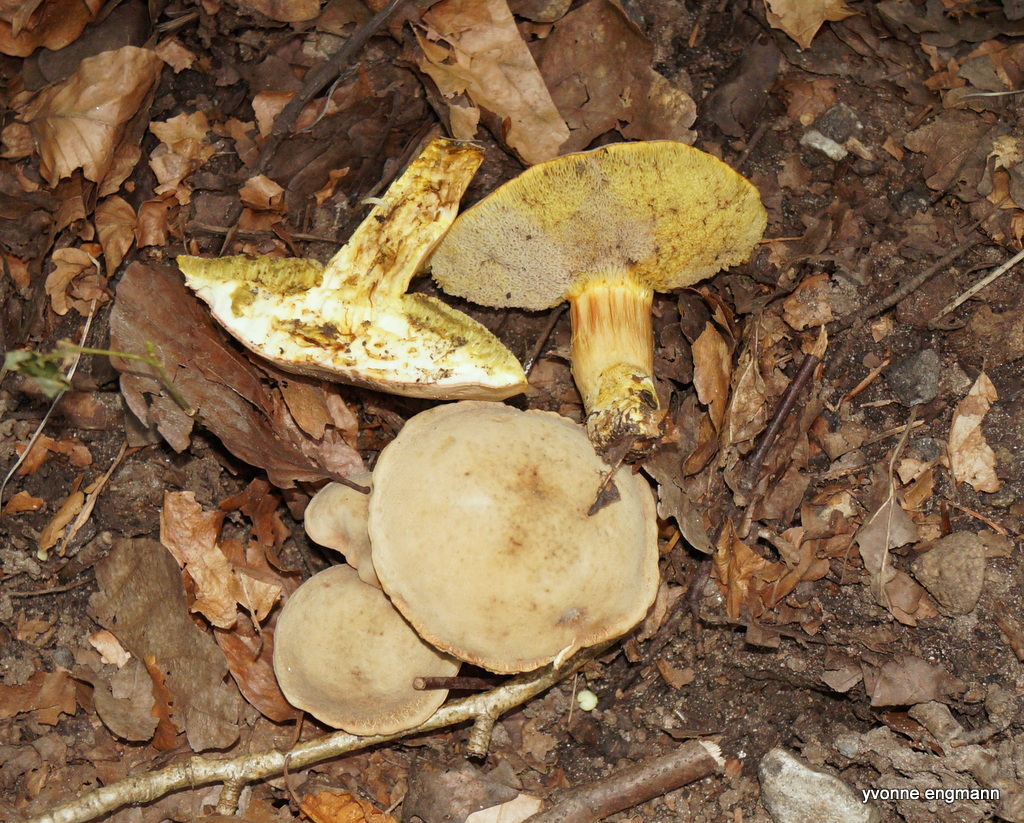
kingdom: Fungi
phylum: Basidiomycota
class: Agaricomycetes
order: Boletales
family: Boletaceae
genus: Xerocomus
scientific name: Xerocomus
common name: filtrørhat
